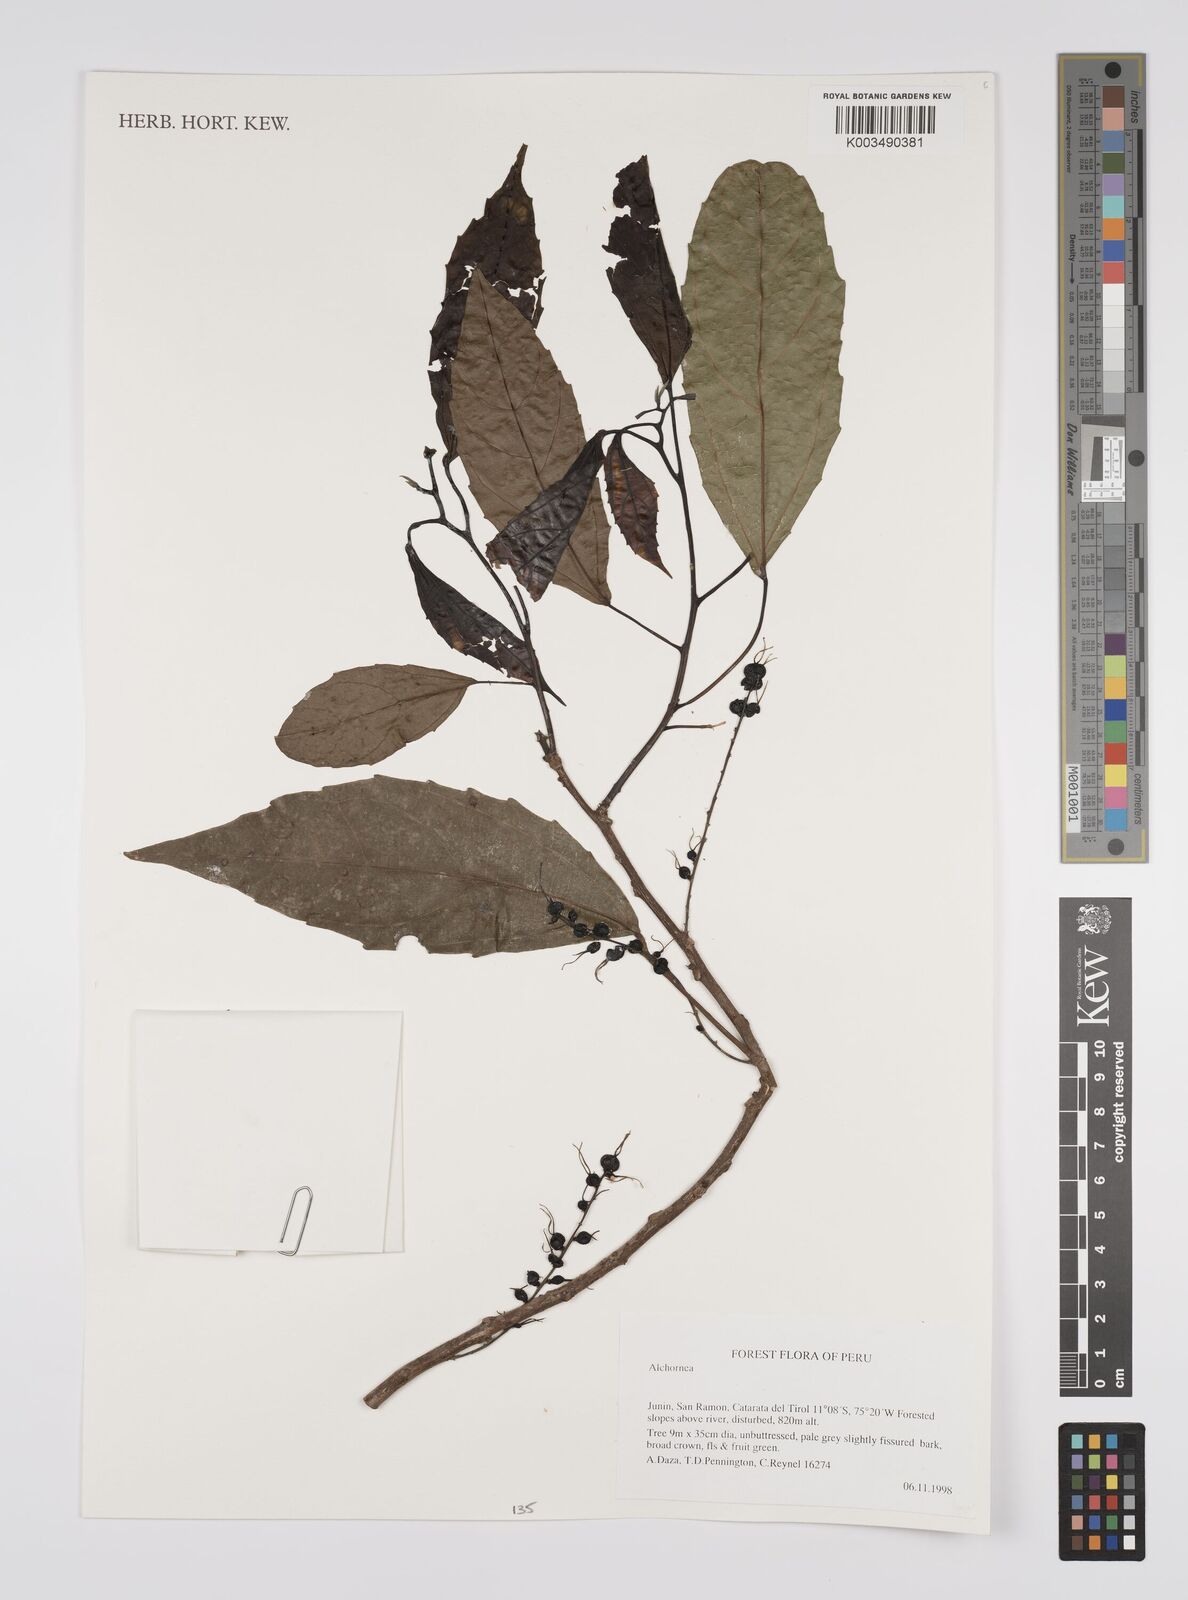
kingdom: Plantae
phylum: Tracheophyta
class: Magnoliopsida
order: Malpighiales
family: Euphorbiaceae
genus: Alchornea
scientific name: Alchornea
